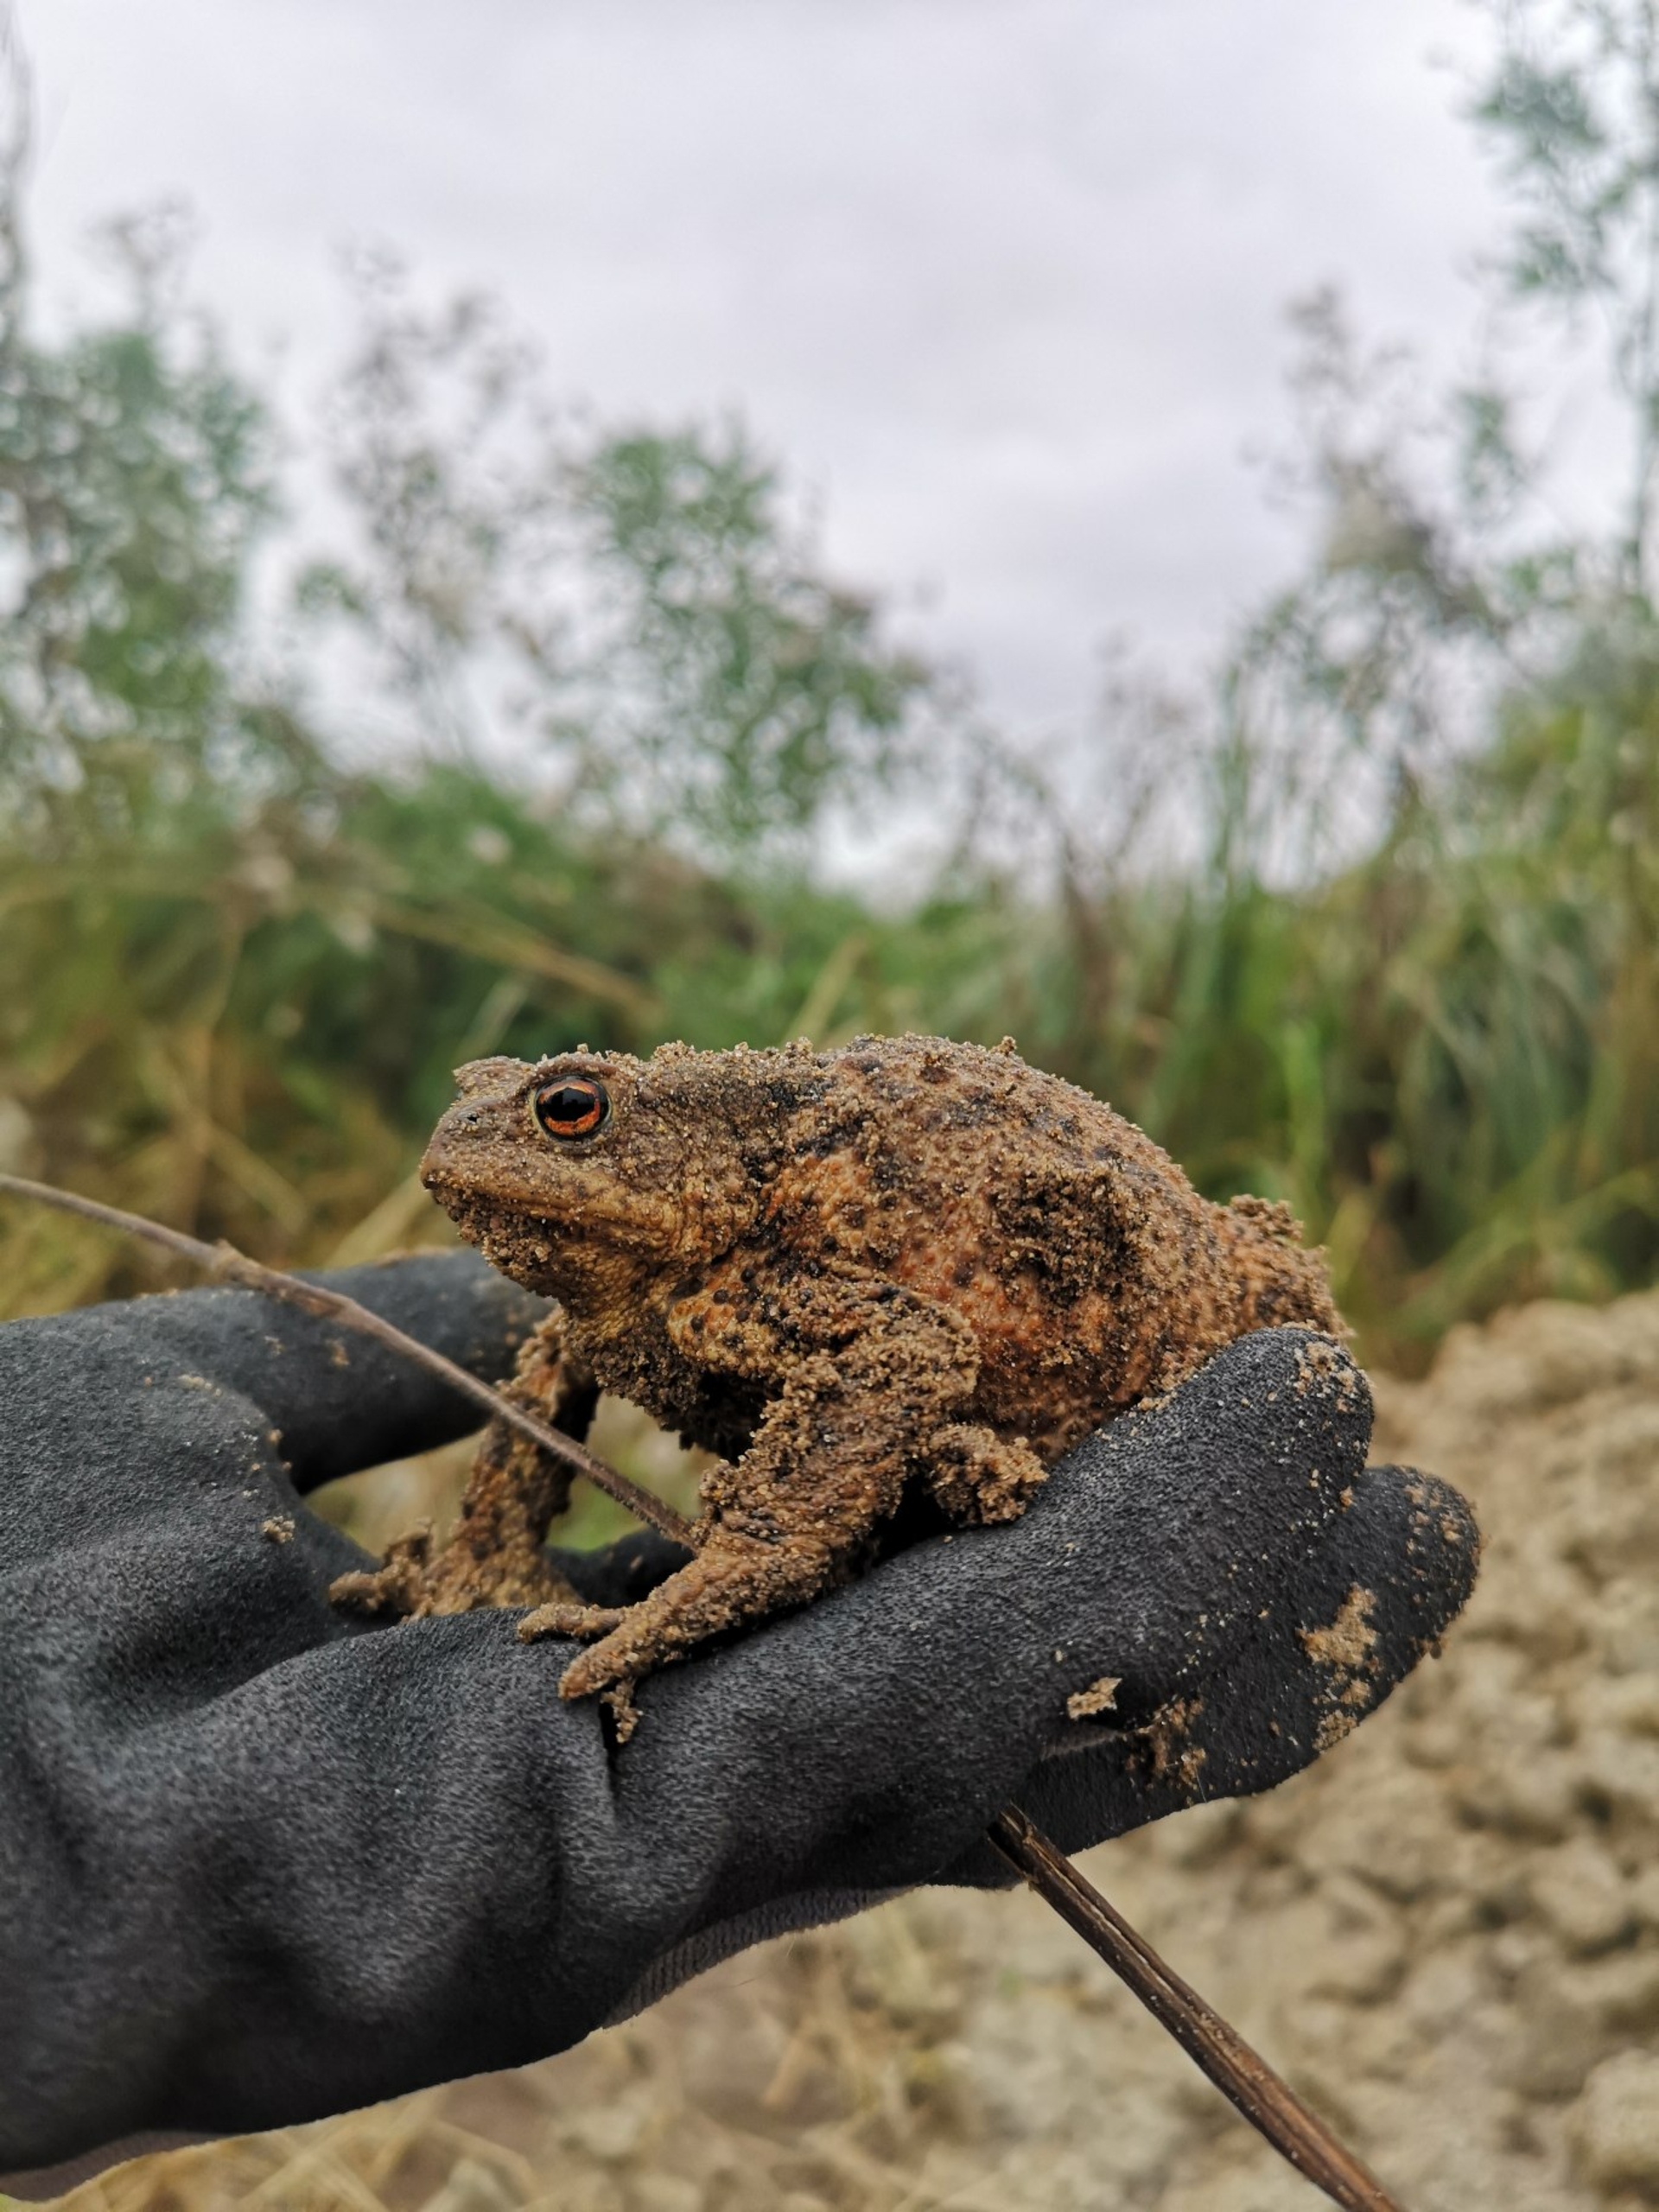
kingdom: Animalia
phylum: Chordata
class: Amphibia
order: Anura
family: Bufonidae
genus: Bufo
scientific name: Bufo bufo
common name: Skrubtudse
